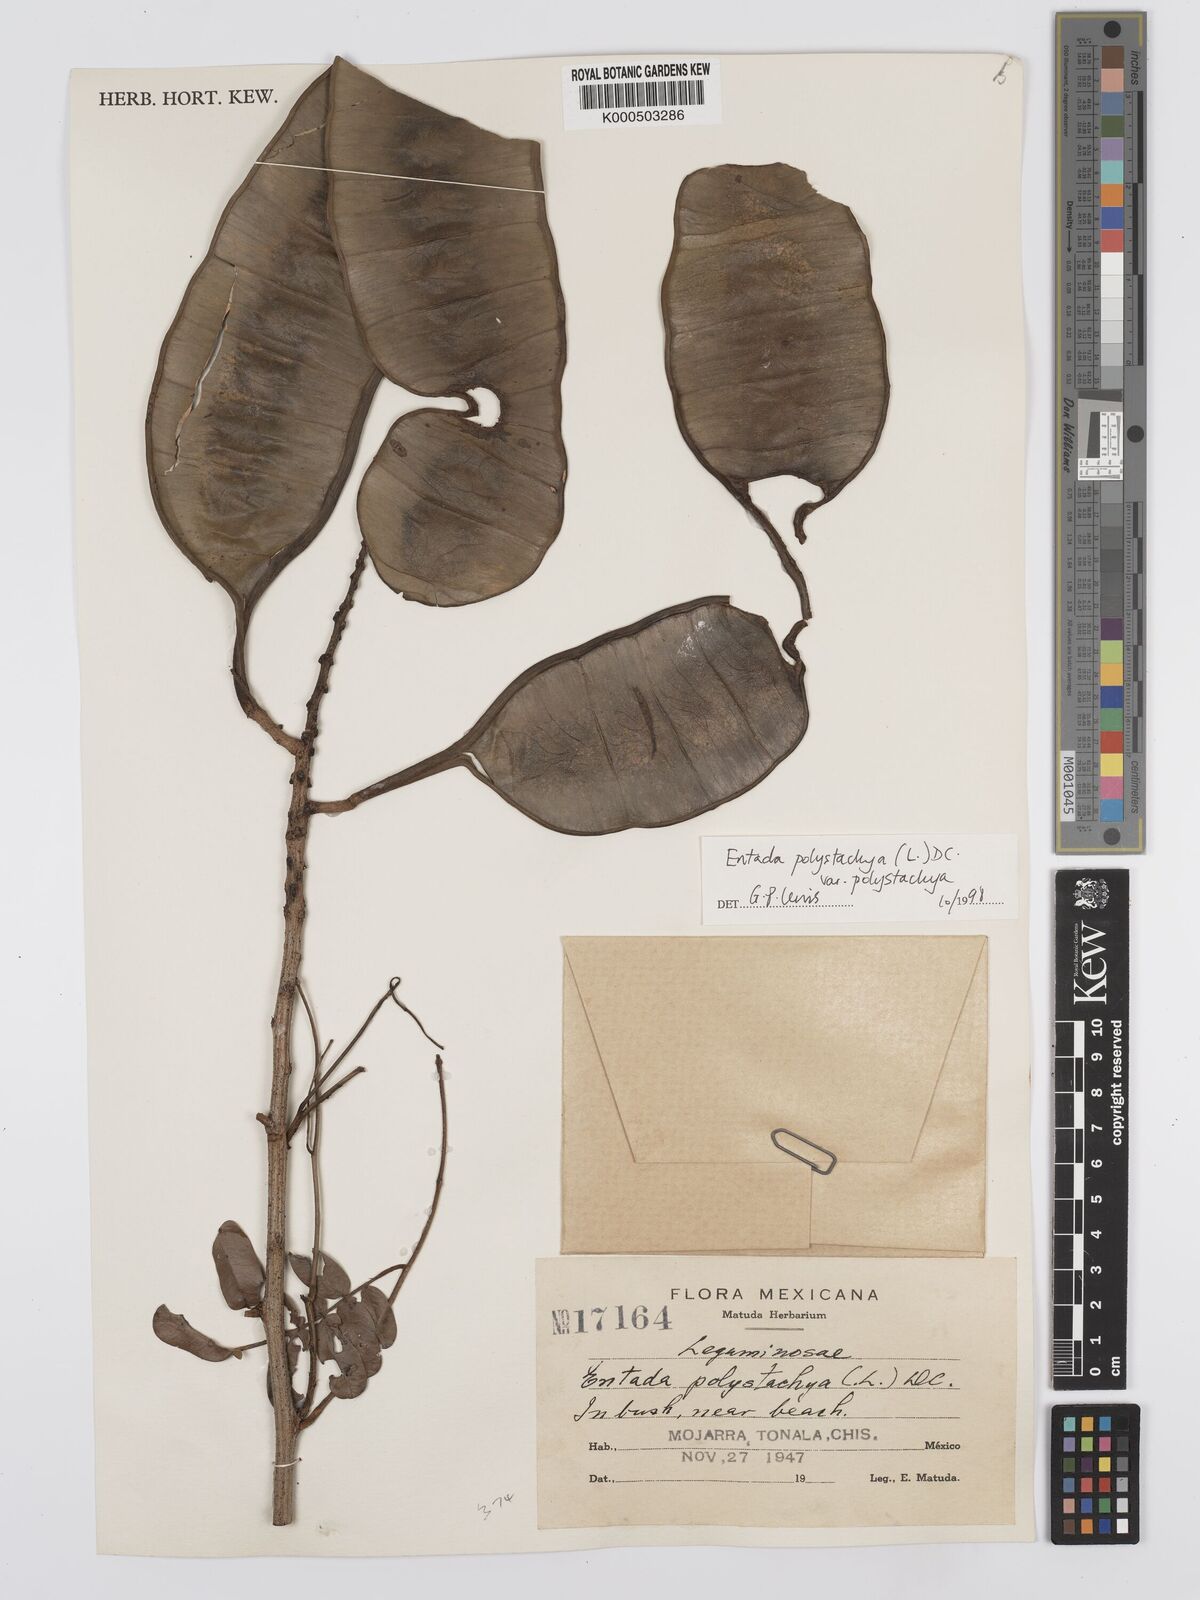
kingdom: Plantae
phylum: Tracheophyta
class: Magnoliopsida
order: Fabales
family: Fabaceae
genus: Entada
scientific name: Entada polystachya
